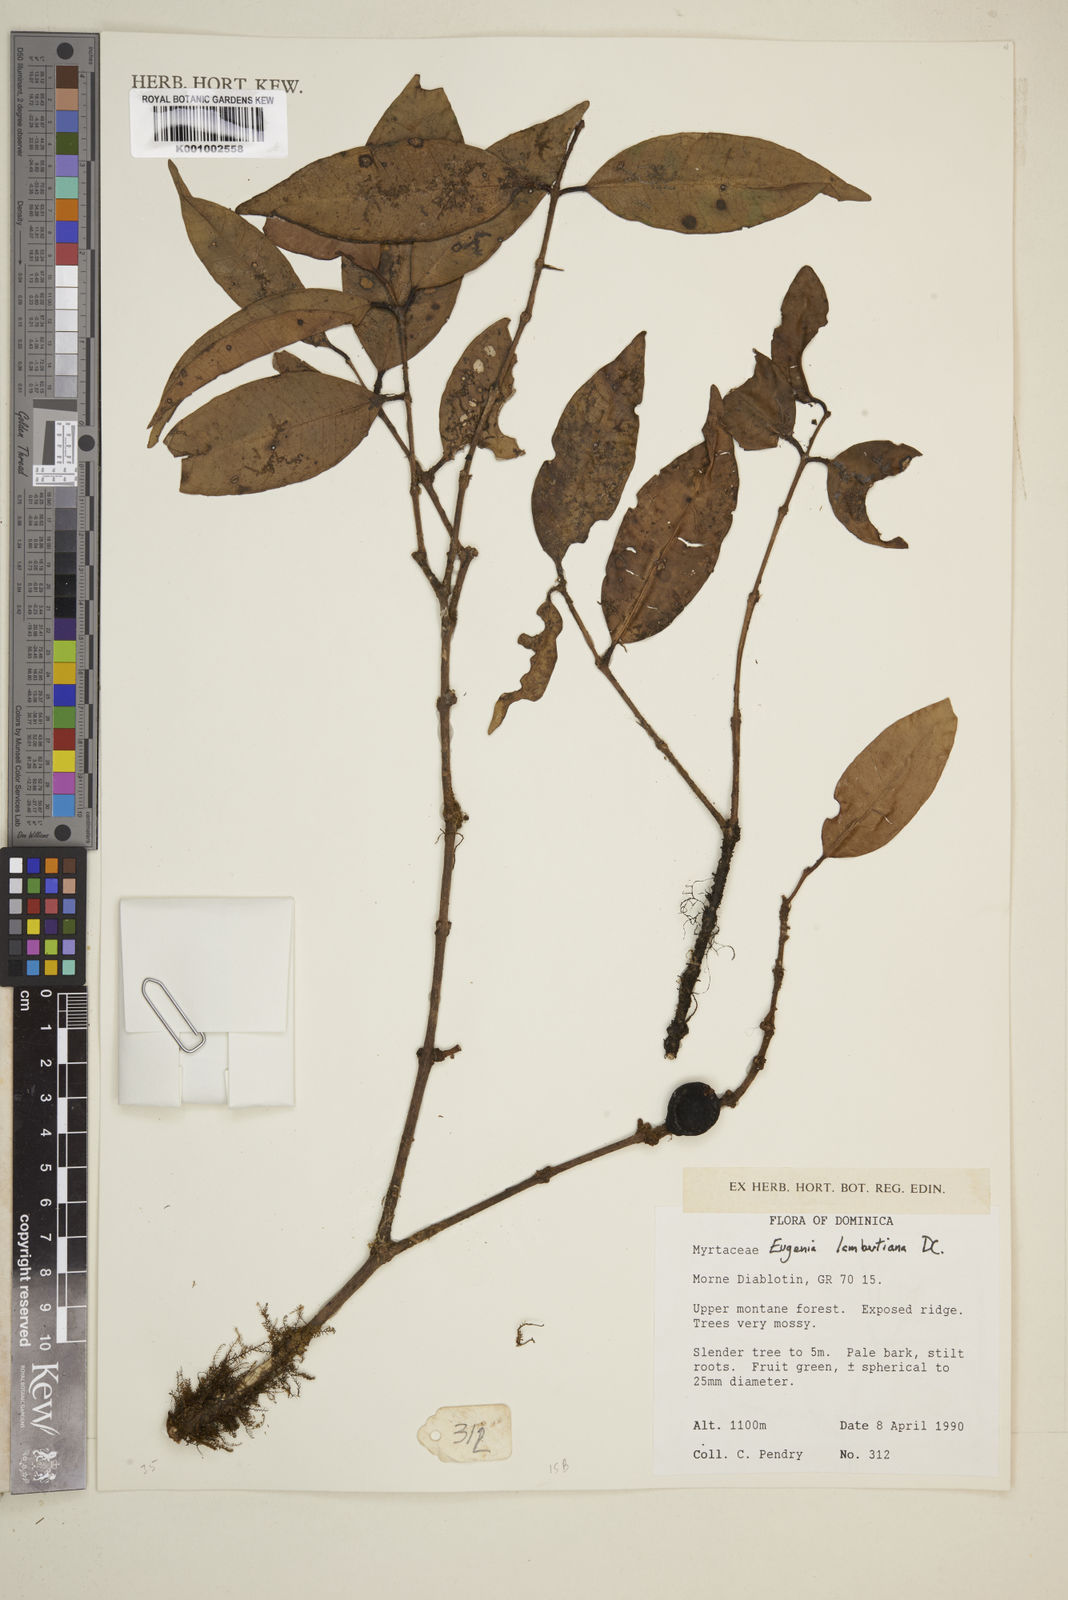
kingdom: Plantae
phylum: Tracheophyta
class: Magnoliopsida
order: Myrtales
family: Myrtaceae
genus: Eugenia
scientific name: Eugenia lambertiana
